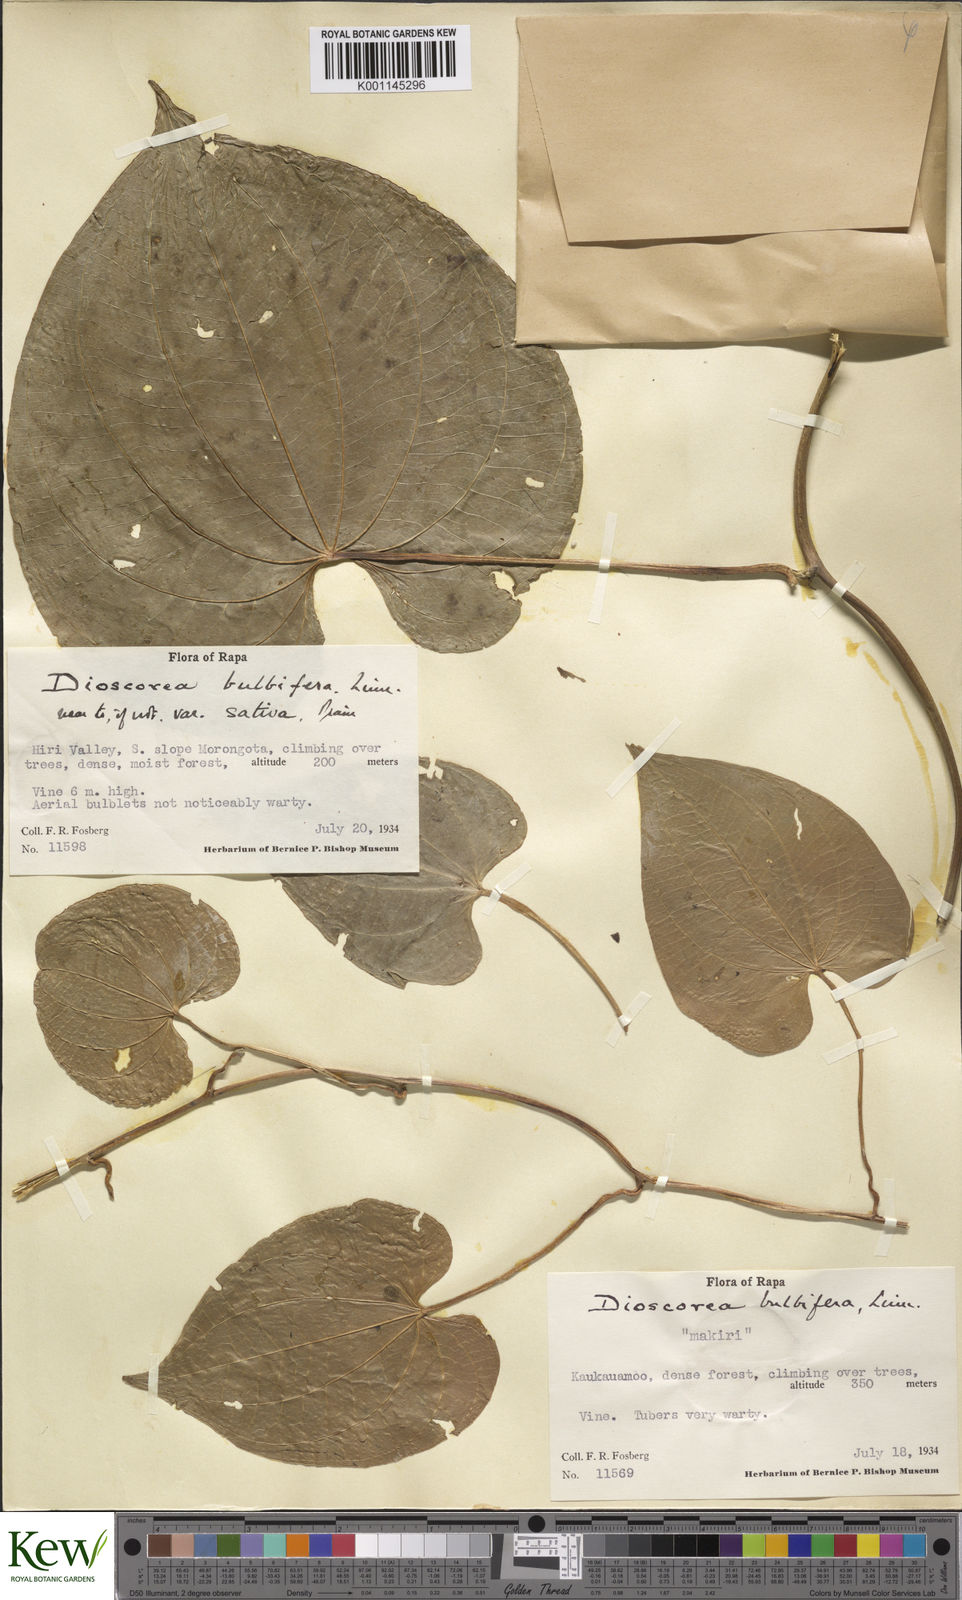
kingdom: Plantae
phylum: Tracheophyta
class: Liliopsida
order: Dioscoreales
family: Dioscoreaceae
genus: Dioscorea
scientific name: Dioscorea bulbifera
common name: Air yam
